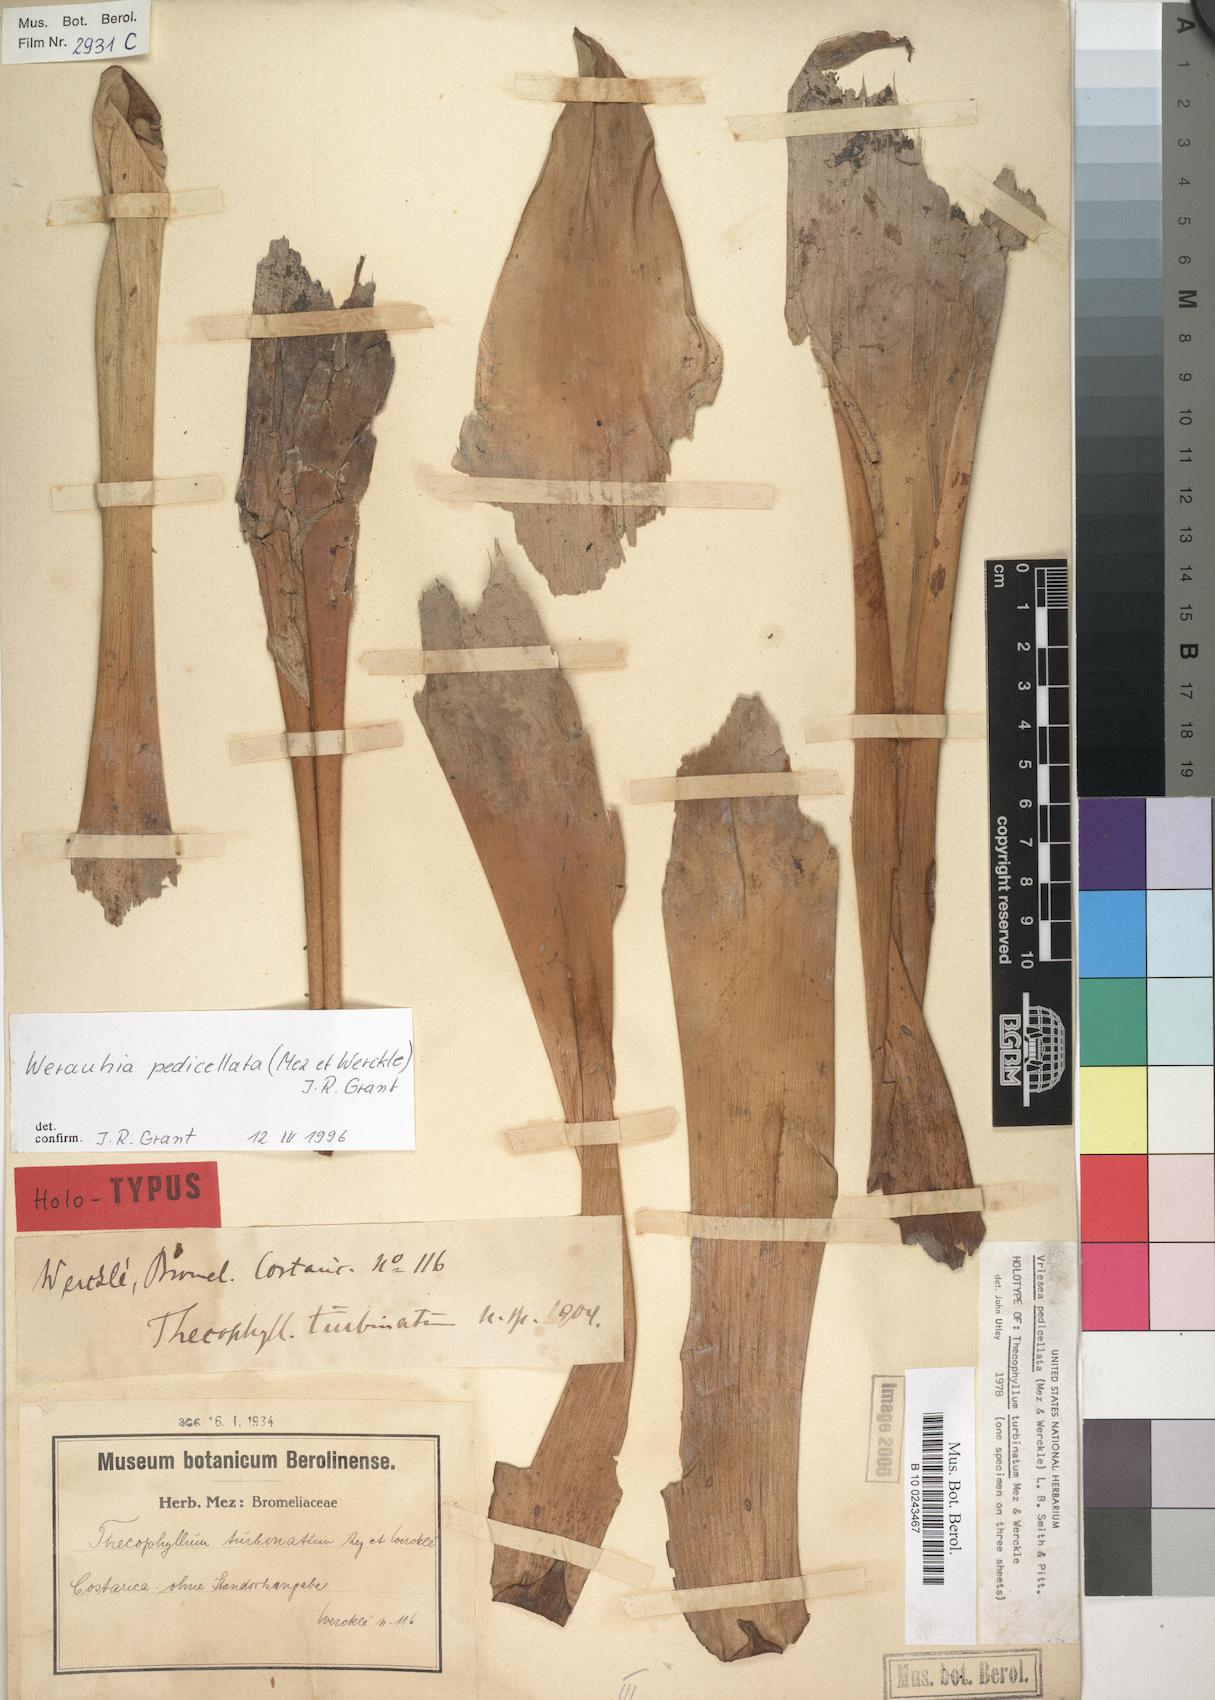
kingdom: Plantae
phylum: Tracheophyta
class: Liliopsida
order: Poales
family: Bromeliaceae
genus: Werauhia
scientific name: Werauhia pedicellata
